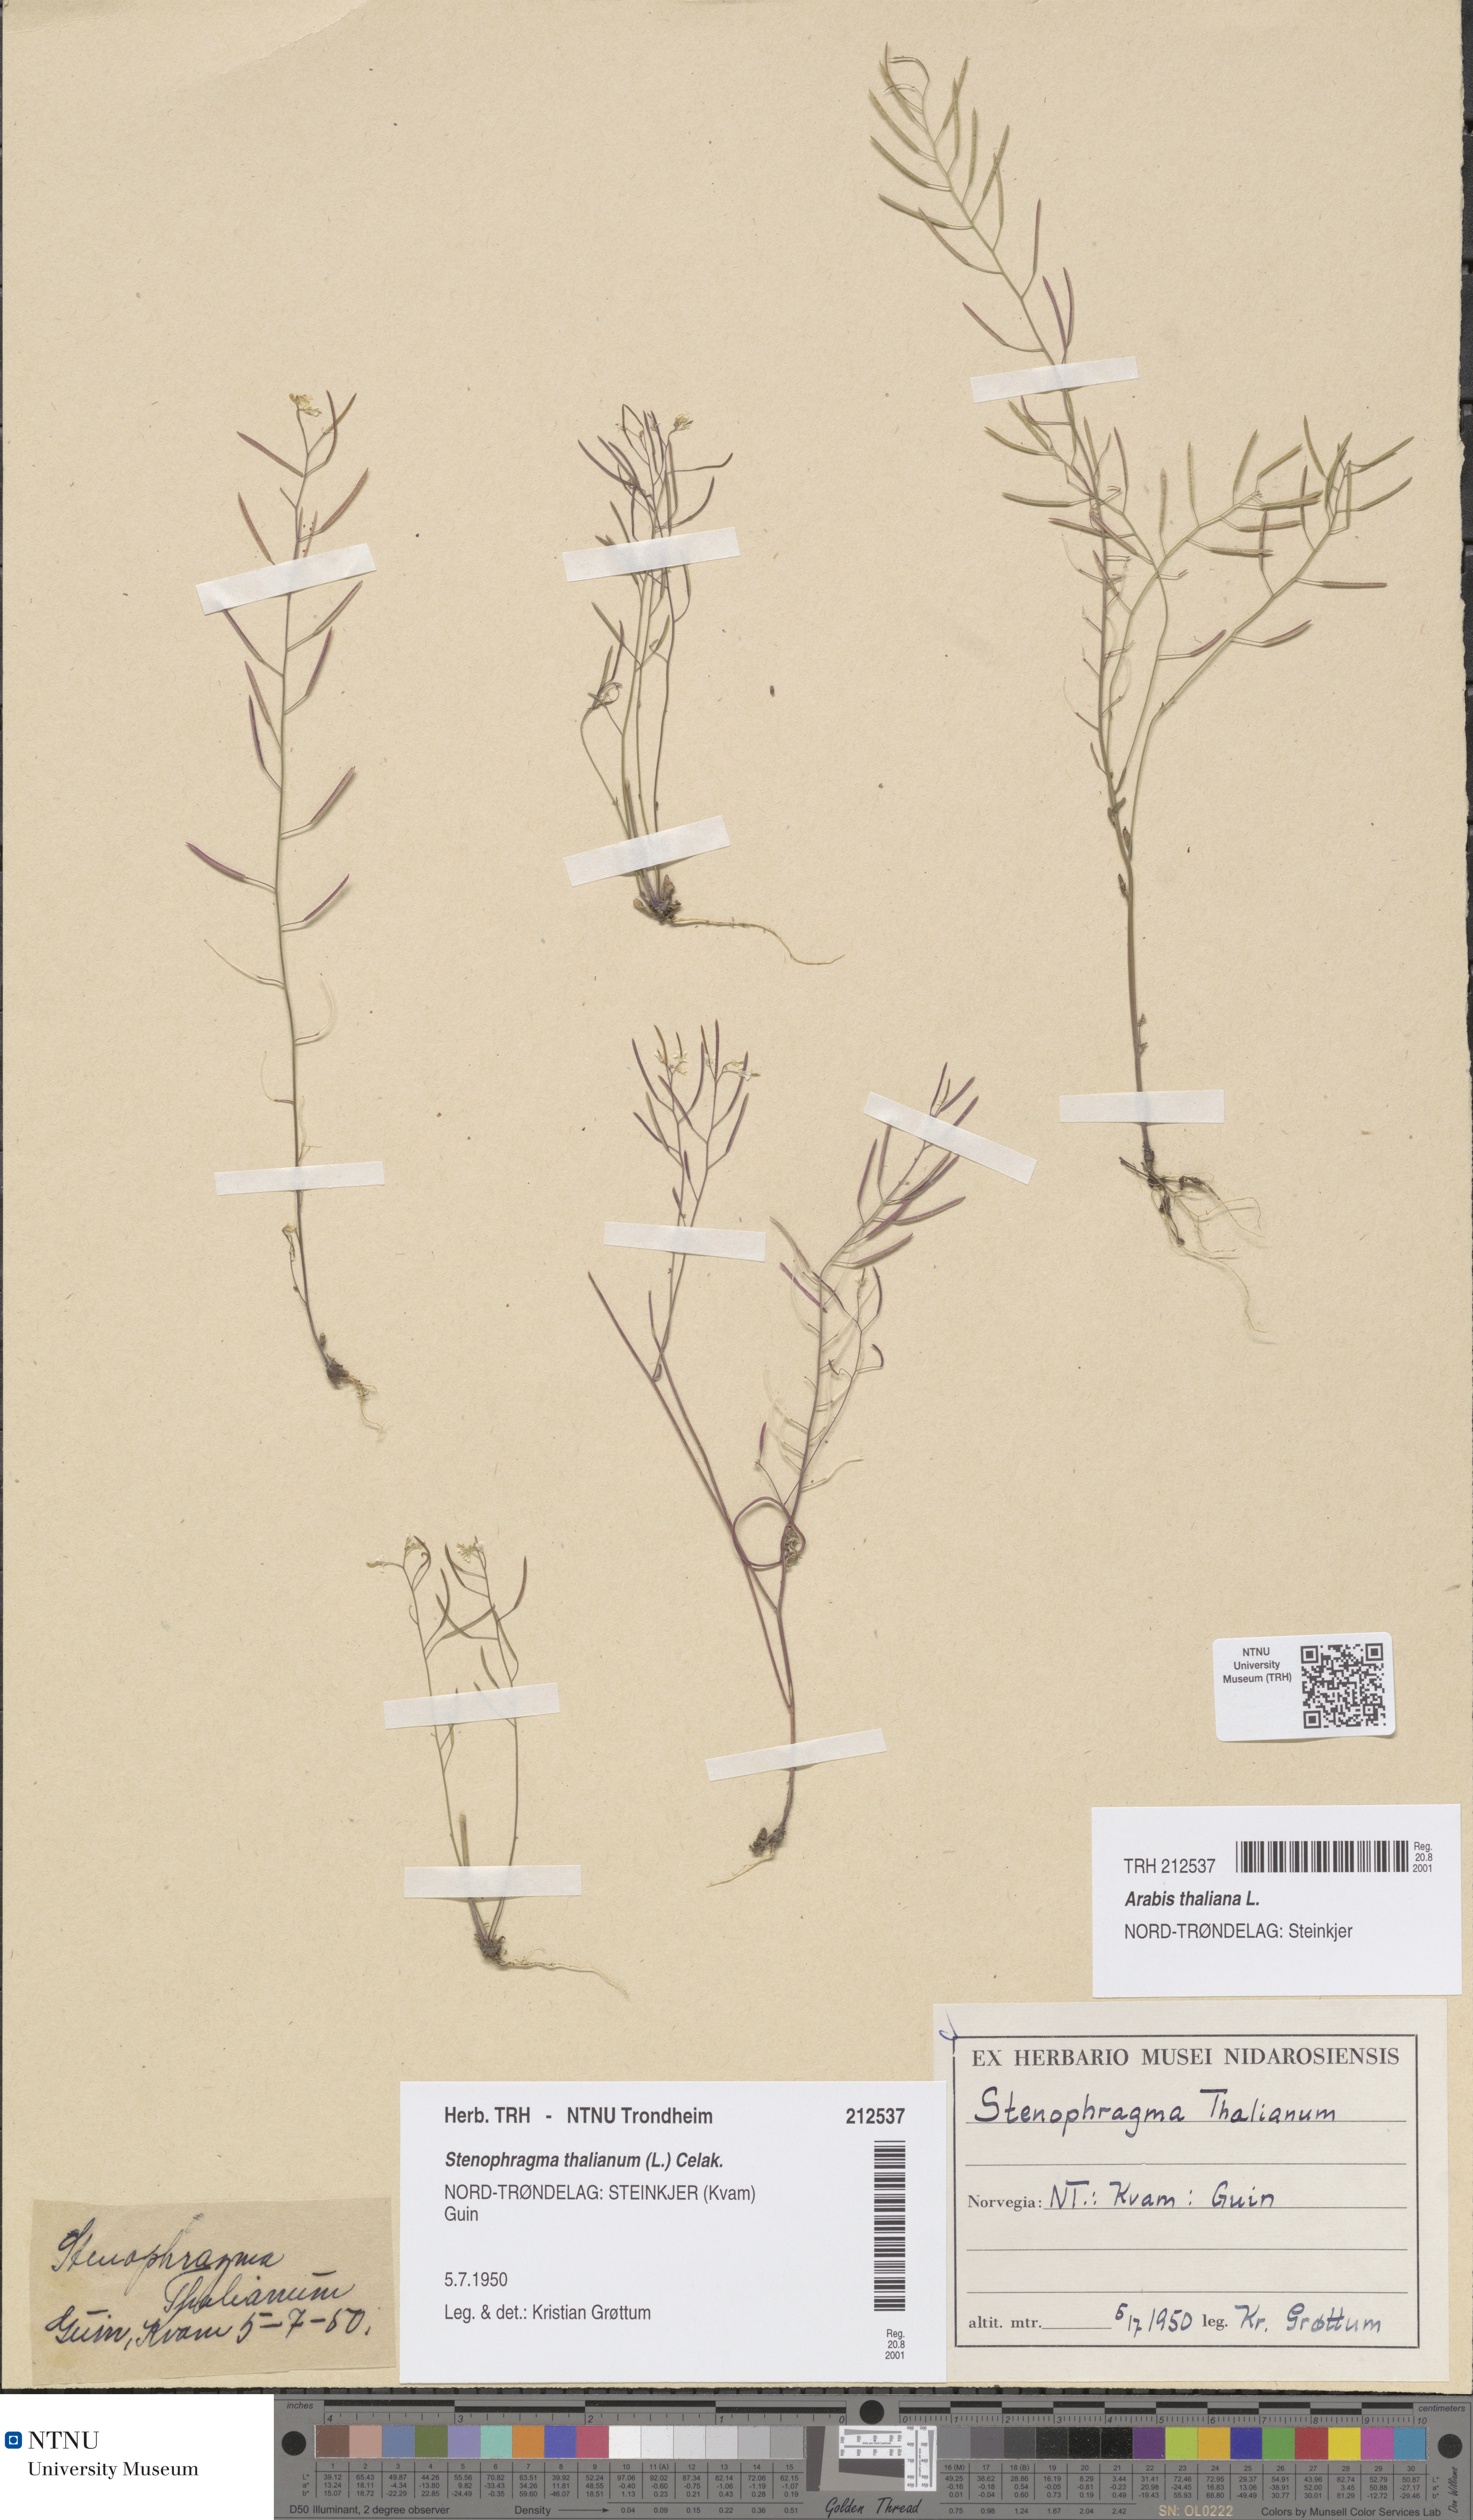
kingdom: Plantae
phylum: Tracheophyta
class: Magnoliopsida
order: Brassicales
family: Brassicaceae
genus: Arabidopsis
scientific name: Arabidopsis thaliana
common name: Thale cress
